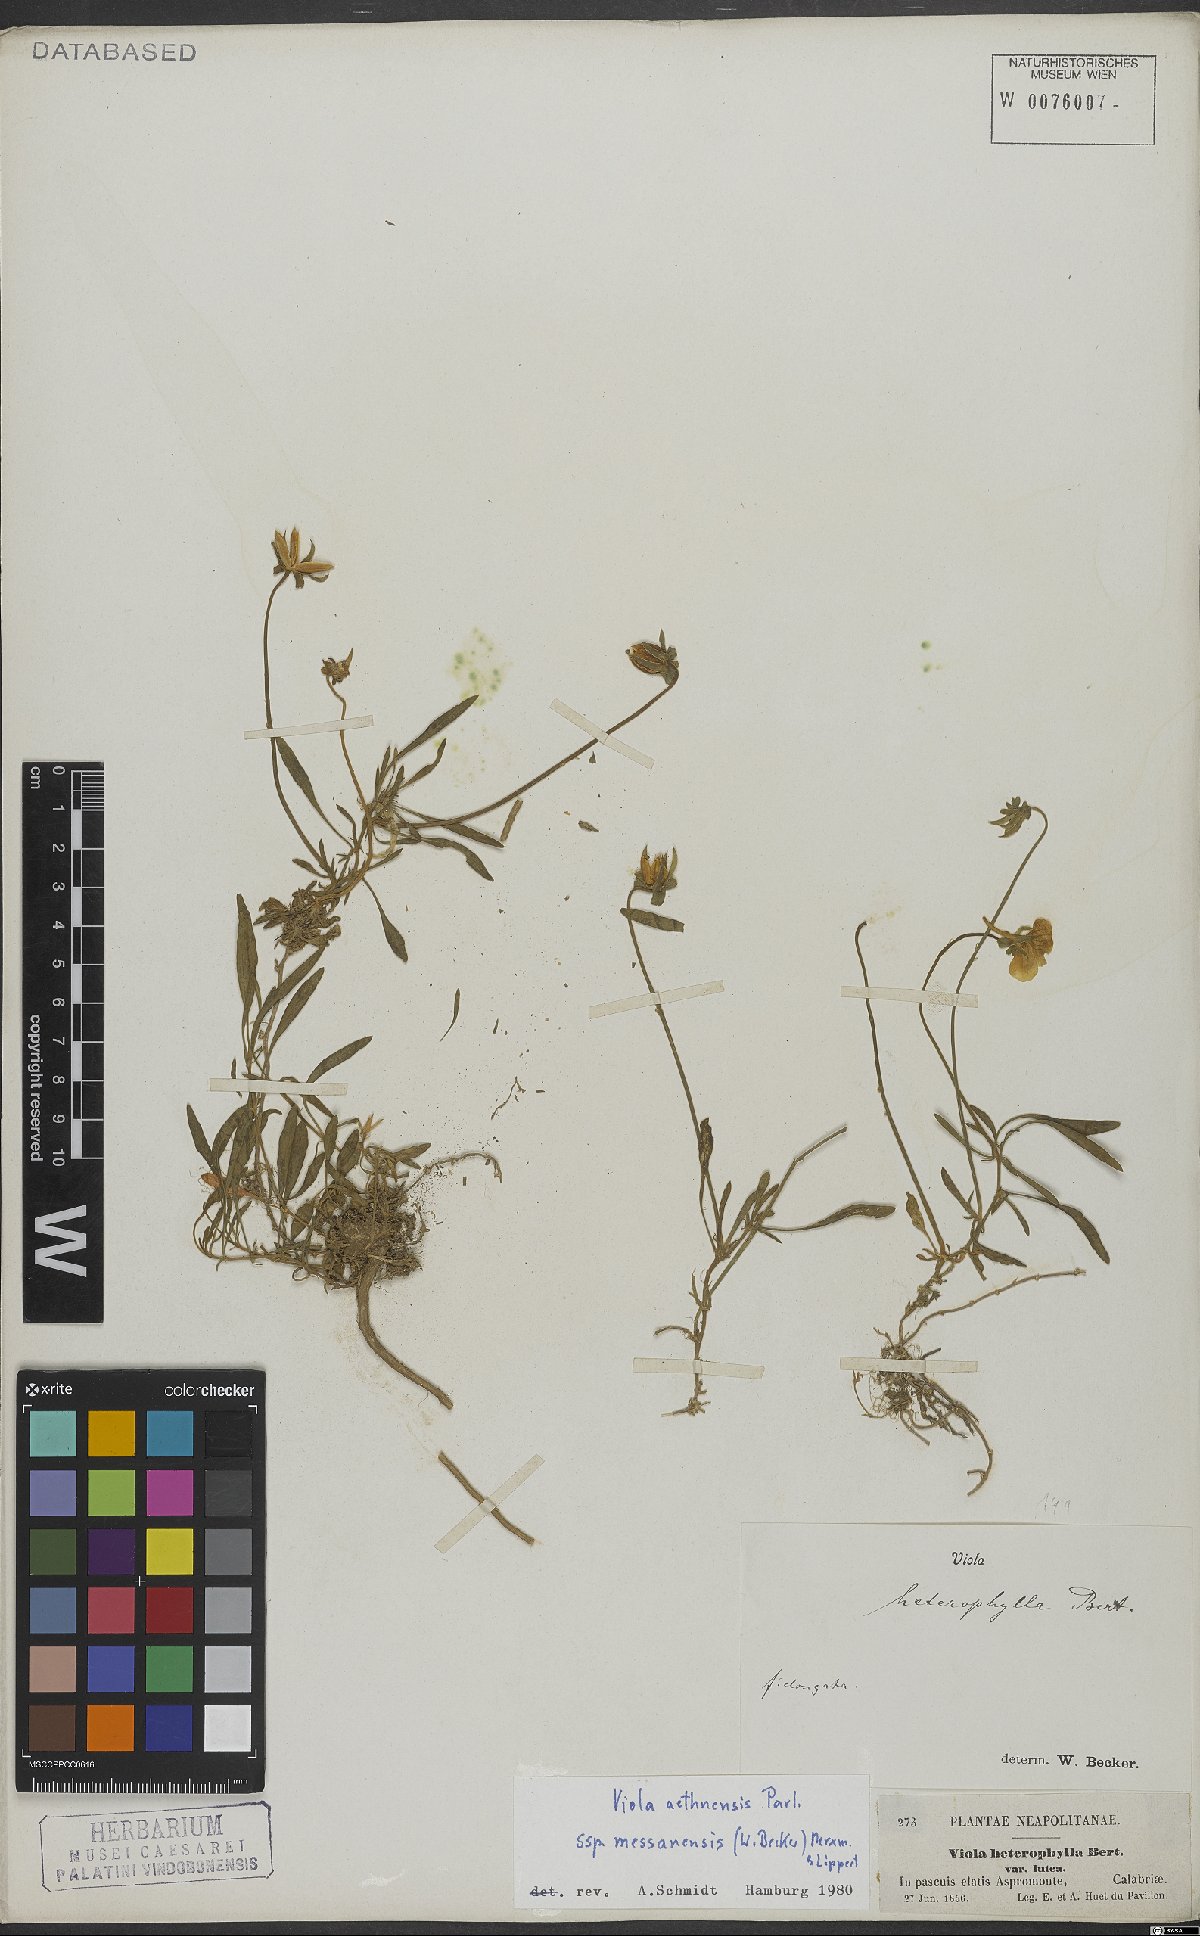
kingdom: Plantae
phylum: Tracheophyta
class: Magnoliopsida
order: Malpighiales
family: Violaceae
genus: Viola
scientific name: Viola aethnensis
